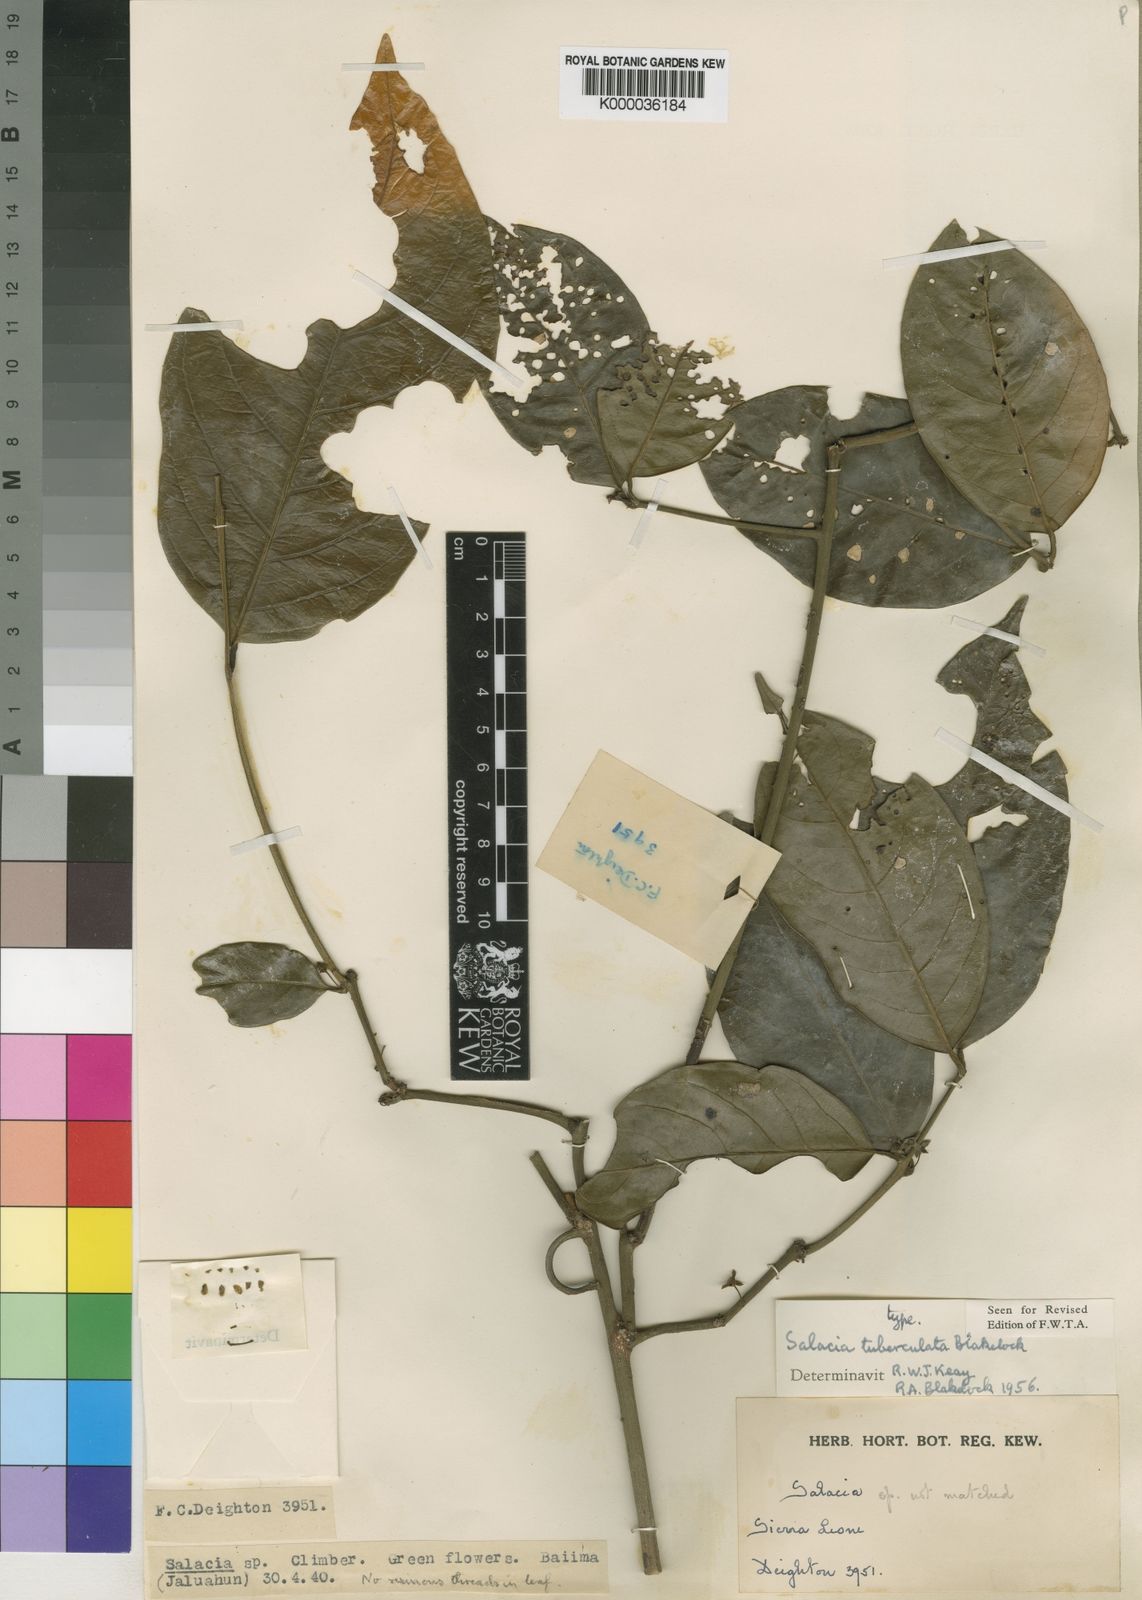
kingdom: Plantae
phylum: Tracheophyta
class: Magnoliopsida
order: Celastrales
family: Celastraceae
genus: Salacia
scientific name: Salacia tuberculata
